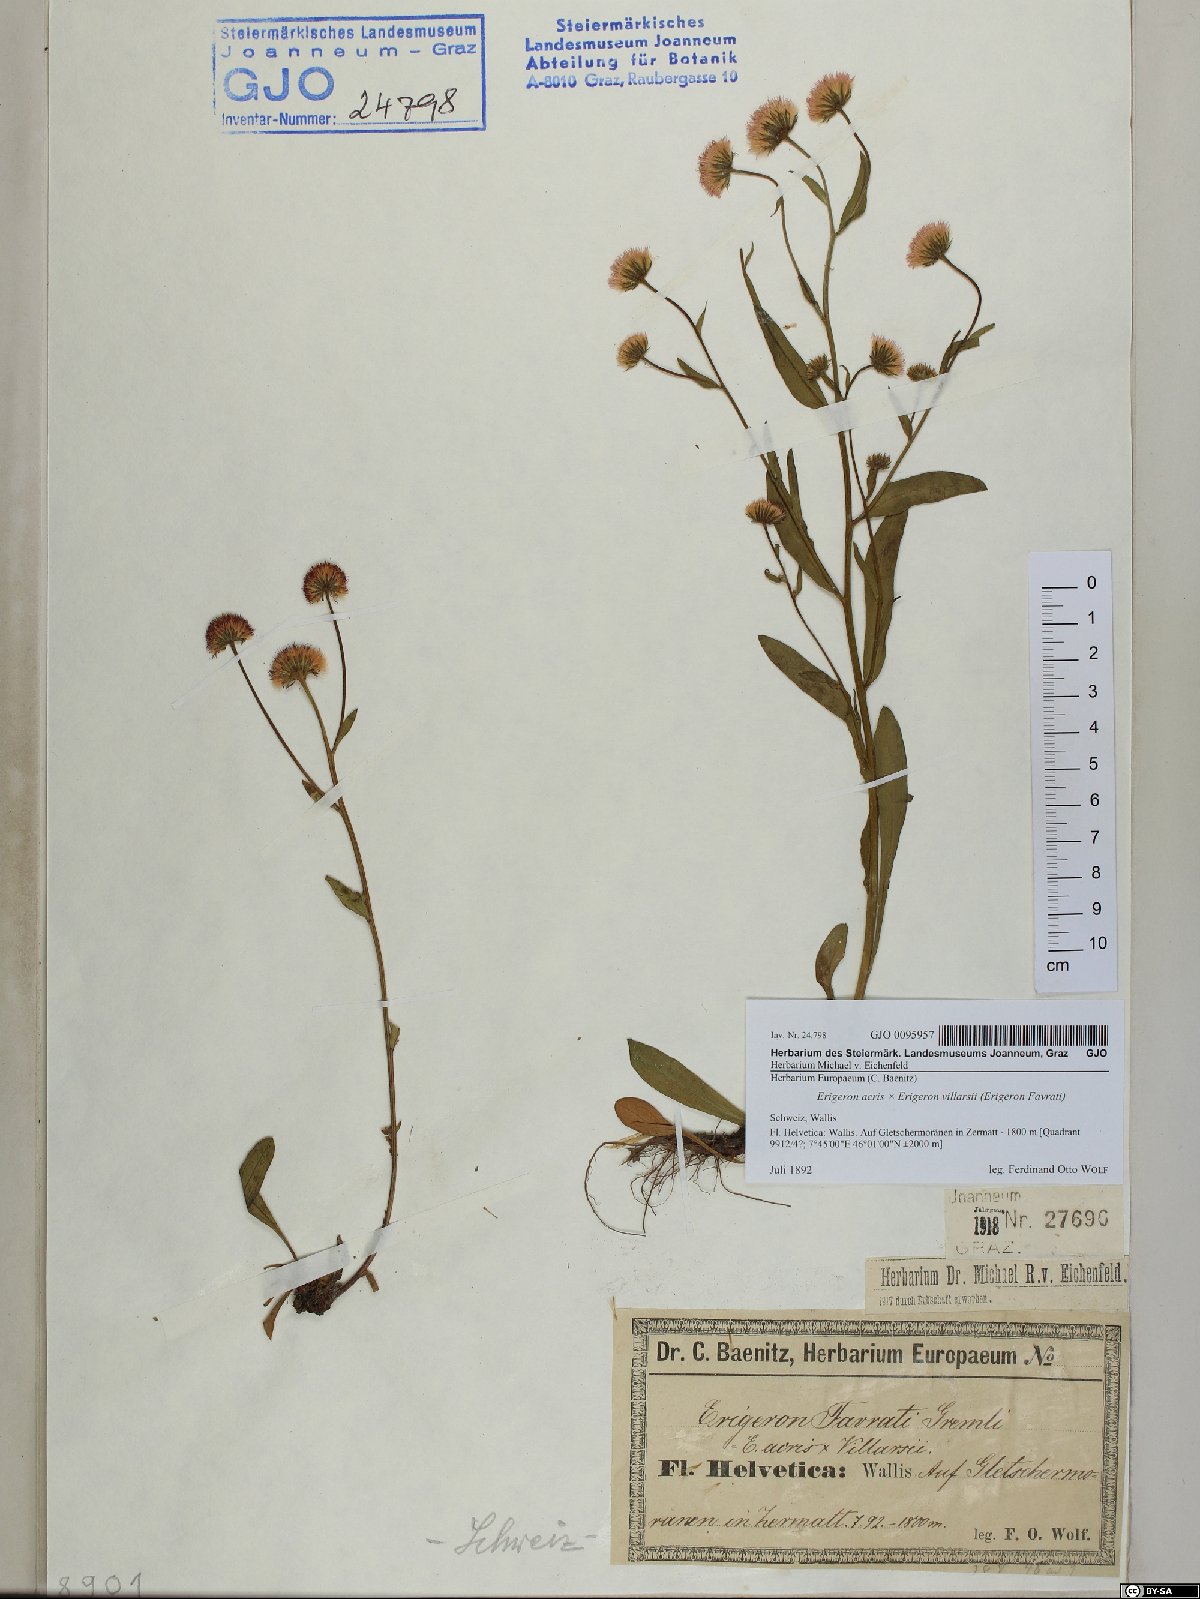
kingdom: Plantae
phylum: Tracheophyta
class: Magnoliopsida
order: Asterales
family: Asteraceae
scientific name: Asteraceae
